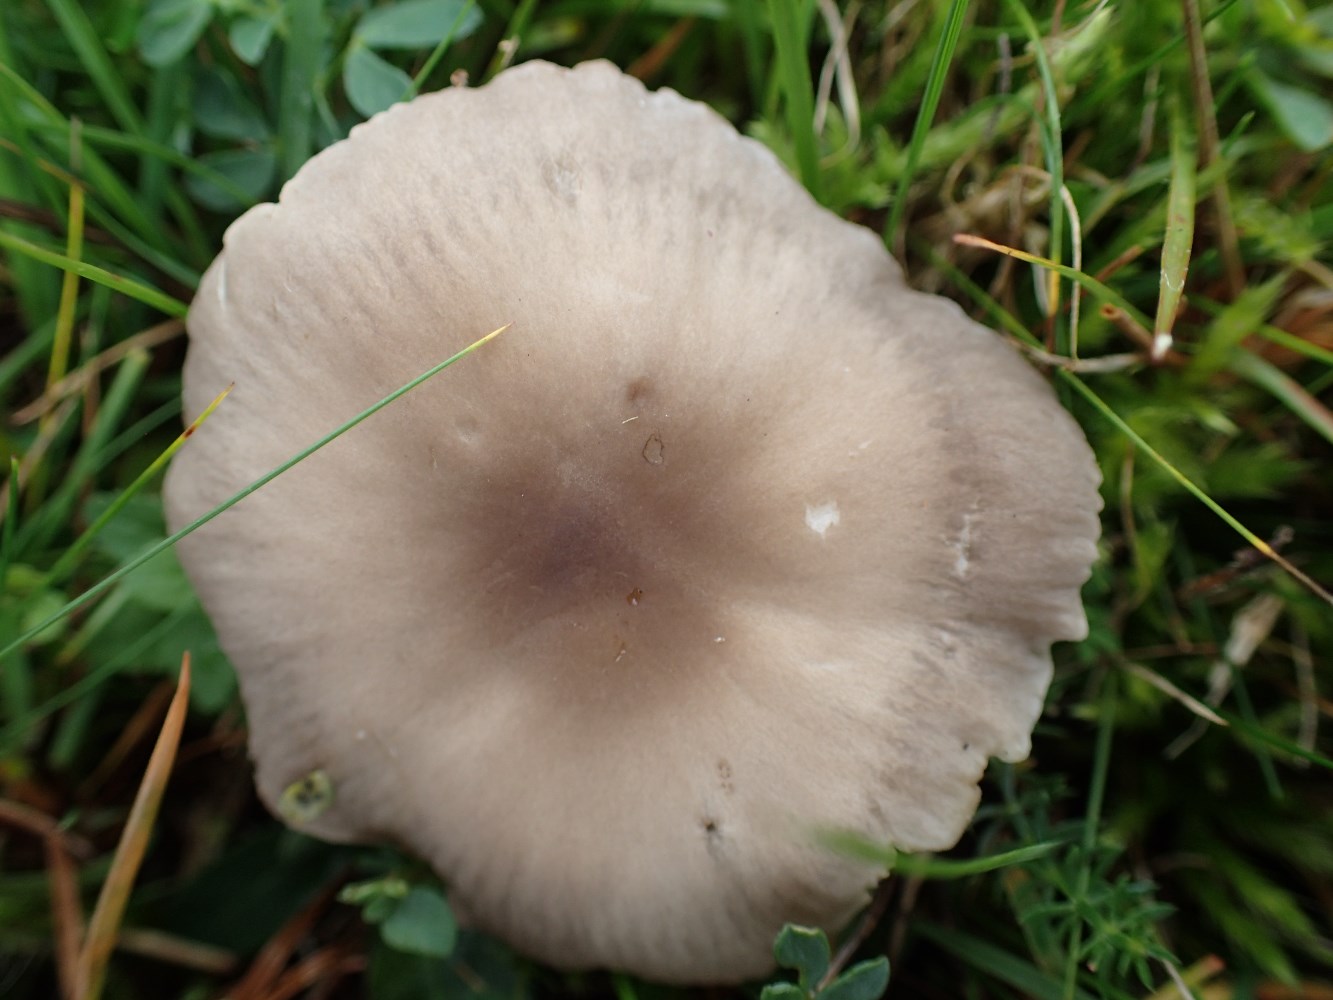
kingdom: Fungi
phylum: Basidiomycota
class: Agaricomycetes
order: Agaricales
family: Tricholomataceae
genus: Dermoloma
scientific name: Dermoloma cuneifolium
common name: eng-nonnehat
